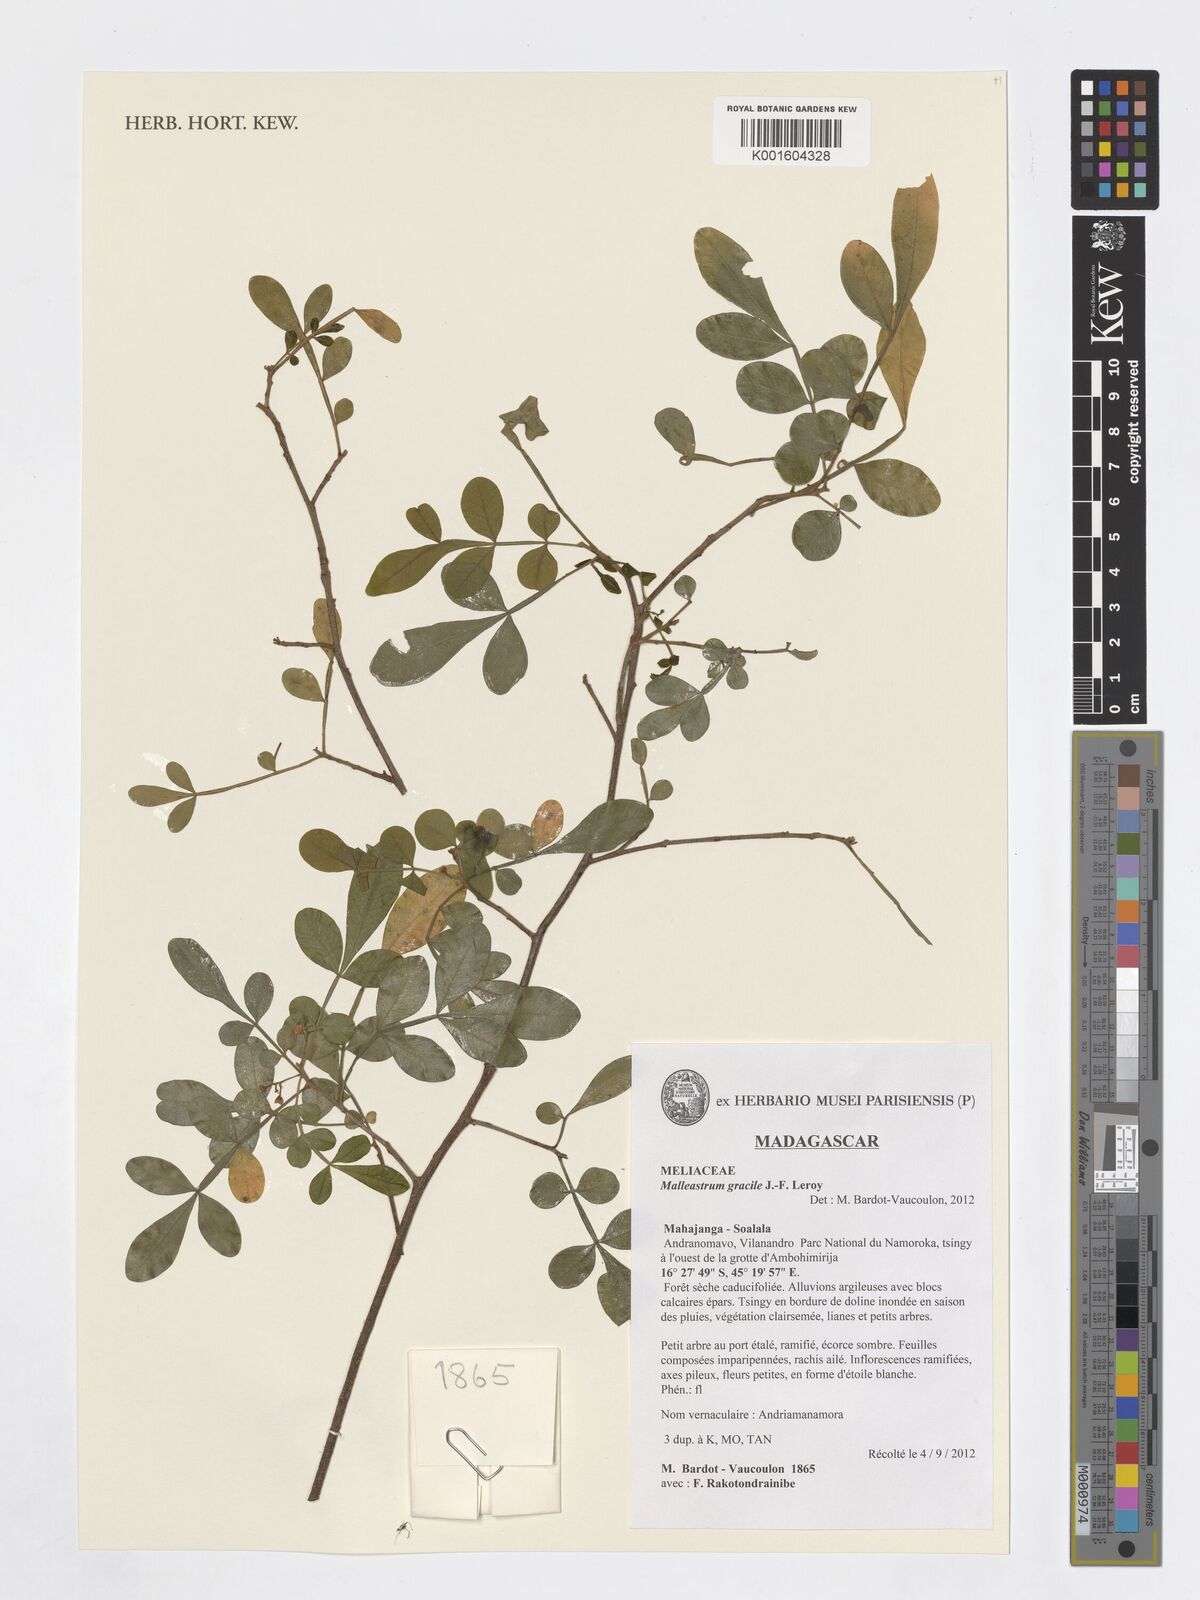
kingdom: Plantae
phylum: Tracheophyta
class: Magnoliopsida
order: Sapindales
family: Meliaceae
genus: Malleastrum
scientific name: Malleastrum gracile
